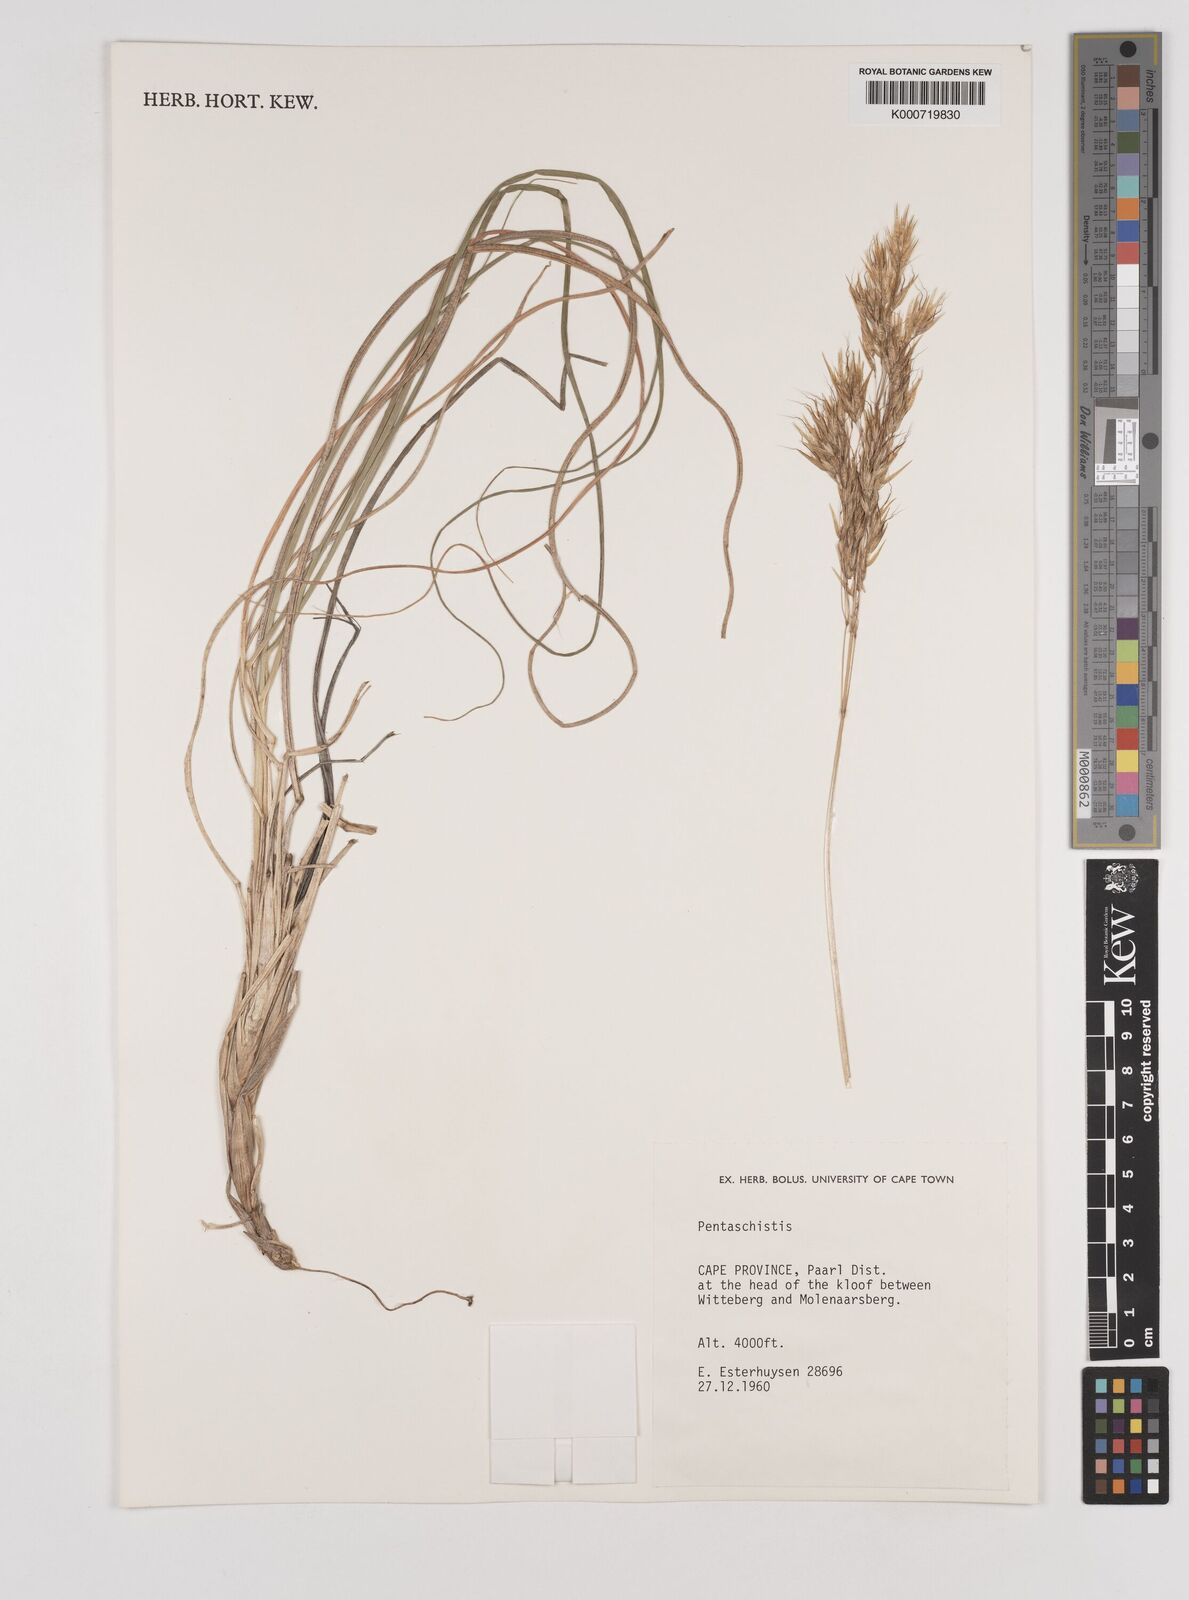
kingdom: Plantae
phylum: Tracheophyta
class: Liliopsida
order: Poales
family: Poaceae
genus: Pentaschistis
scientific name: Pentaschistis
